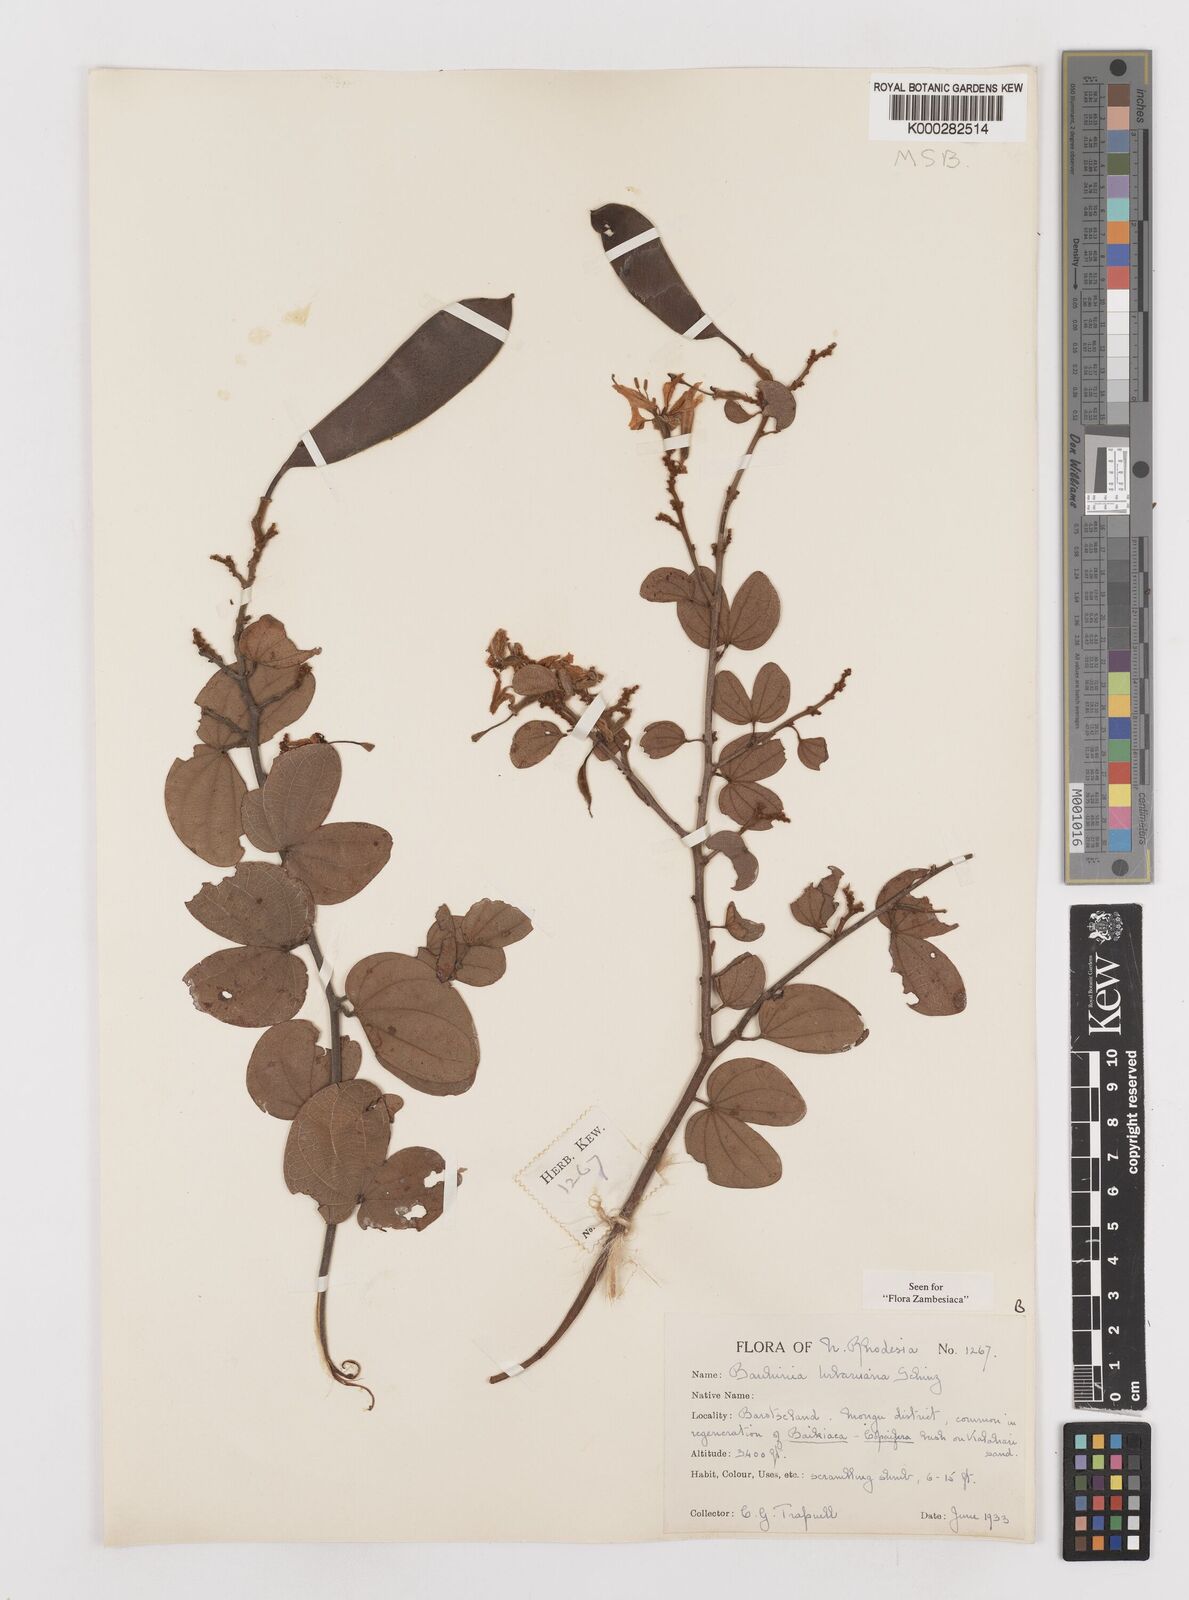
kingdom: Plantae
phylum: Tracheophyta
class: Magnoliopsida
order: Fabales
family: Fabaceae
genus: Bauhinia
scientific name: Bauhinia urbaniana
